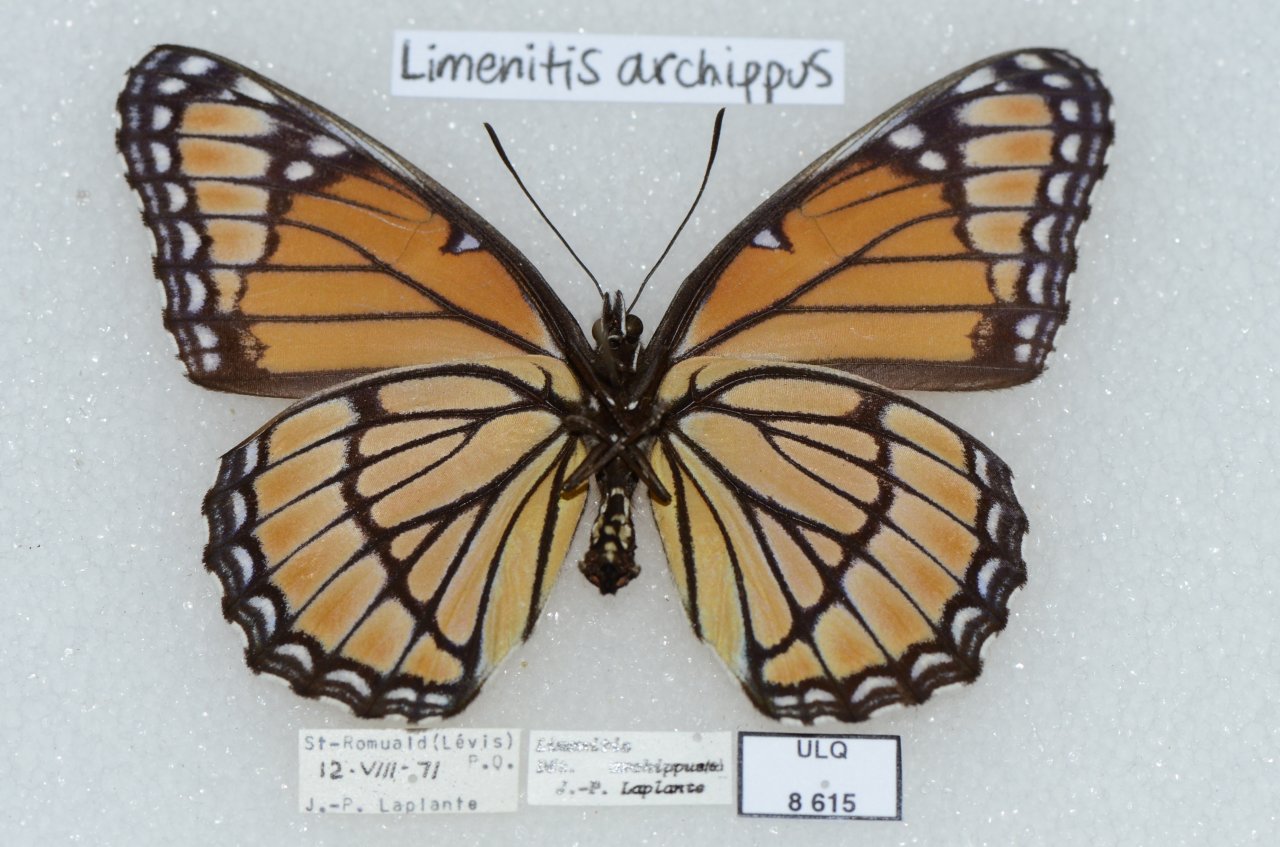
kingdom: Animalia
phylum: Arthropoda
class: Insecta
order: Lepidoptera
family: Nymphalidae
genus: Limenitis
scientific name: Limenitis archippus
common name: Viceroy
